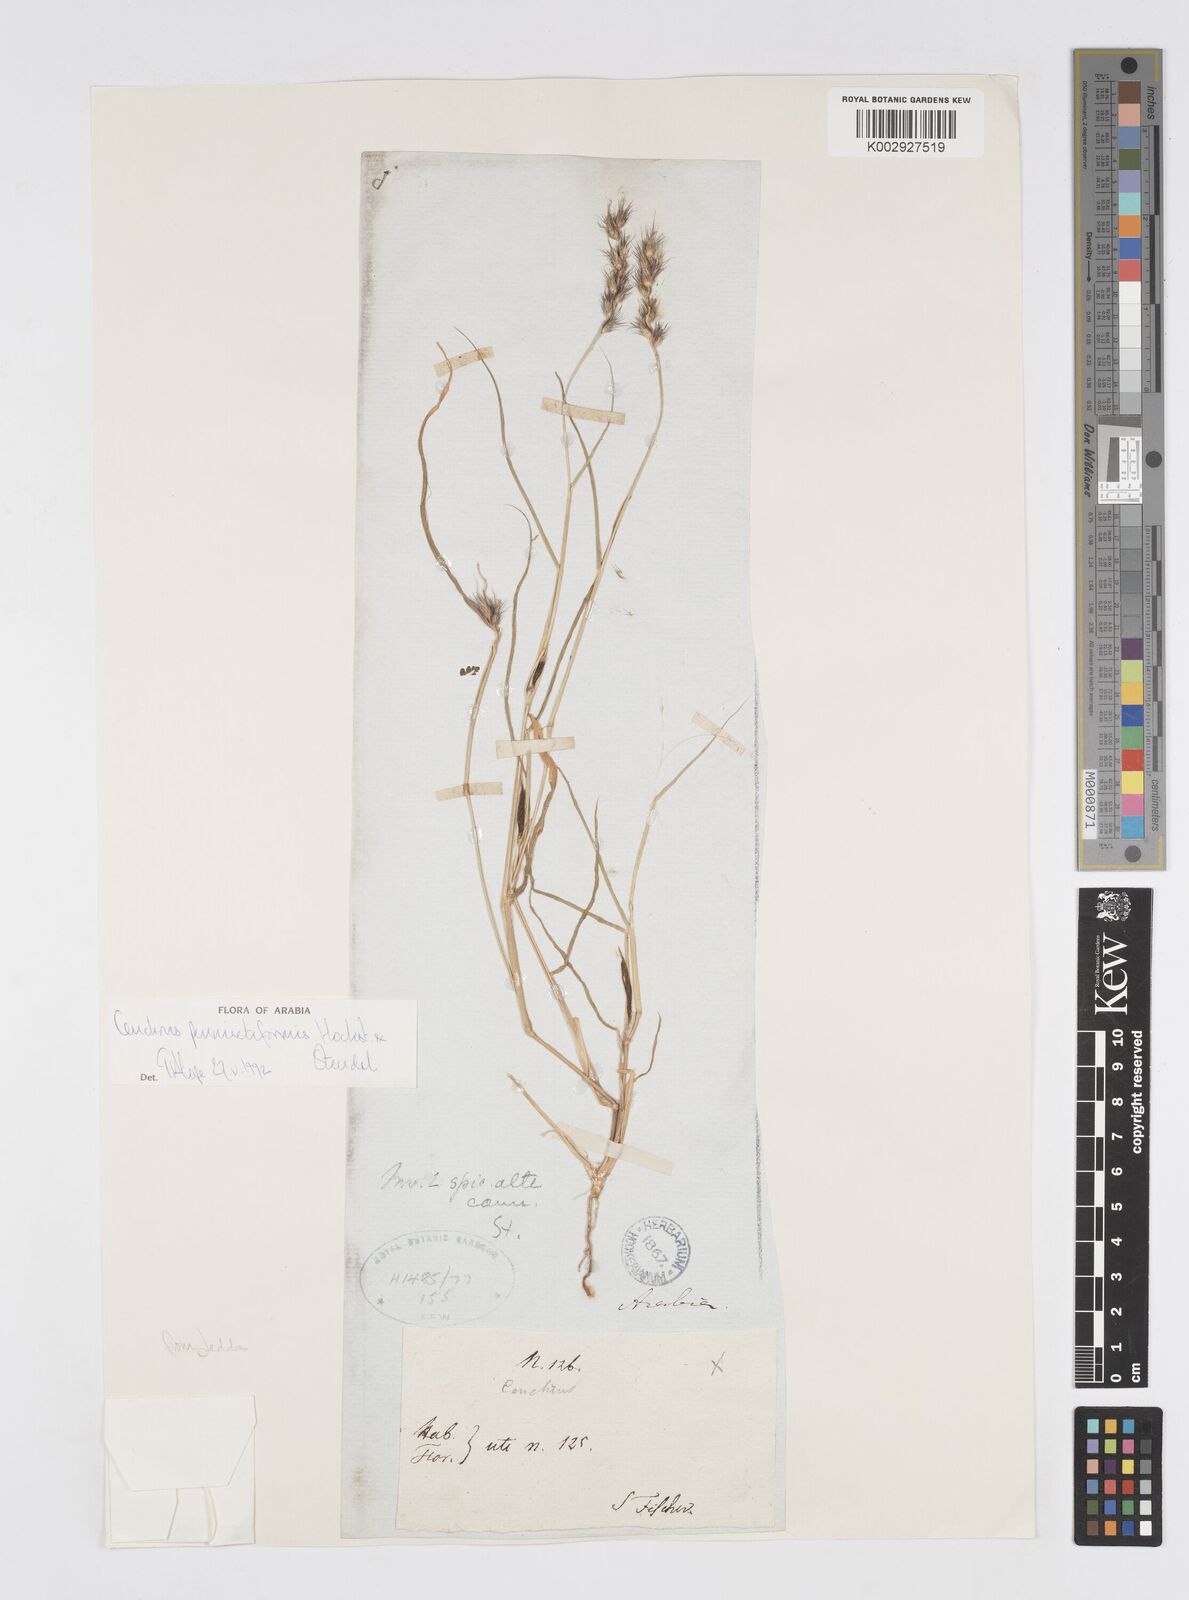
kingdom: Plantae
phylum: Tracheophyta
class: Liliopsida
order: Poales
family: Poaceae
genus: Cenchrus
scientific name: Cenchrus pennisetiformis
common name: Cloncurry
